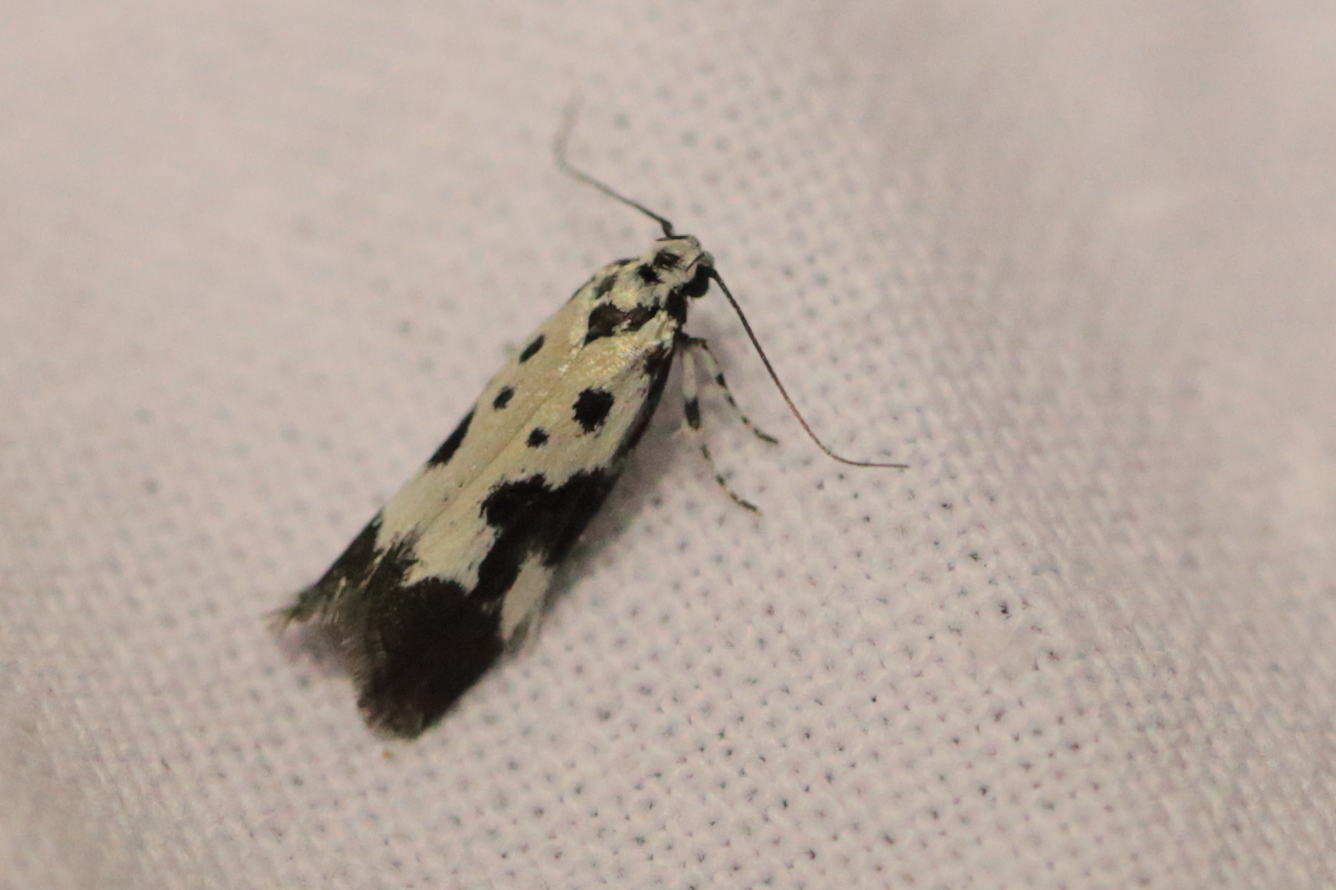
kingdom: Animalia
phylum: Arthropoda
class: Insecta
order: Lepidoptera
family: Ethmiidae
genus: Ethmia
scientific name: Ethmia quadrillella
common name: Comfrey ermel
